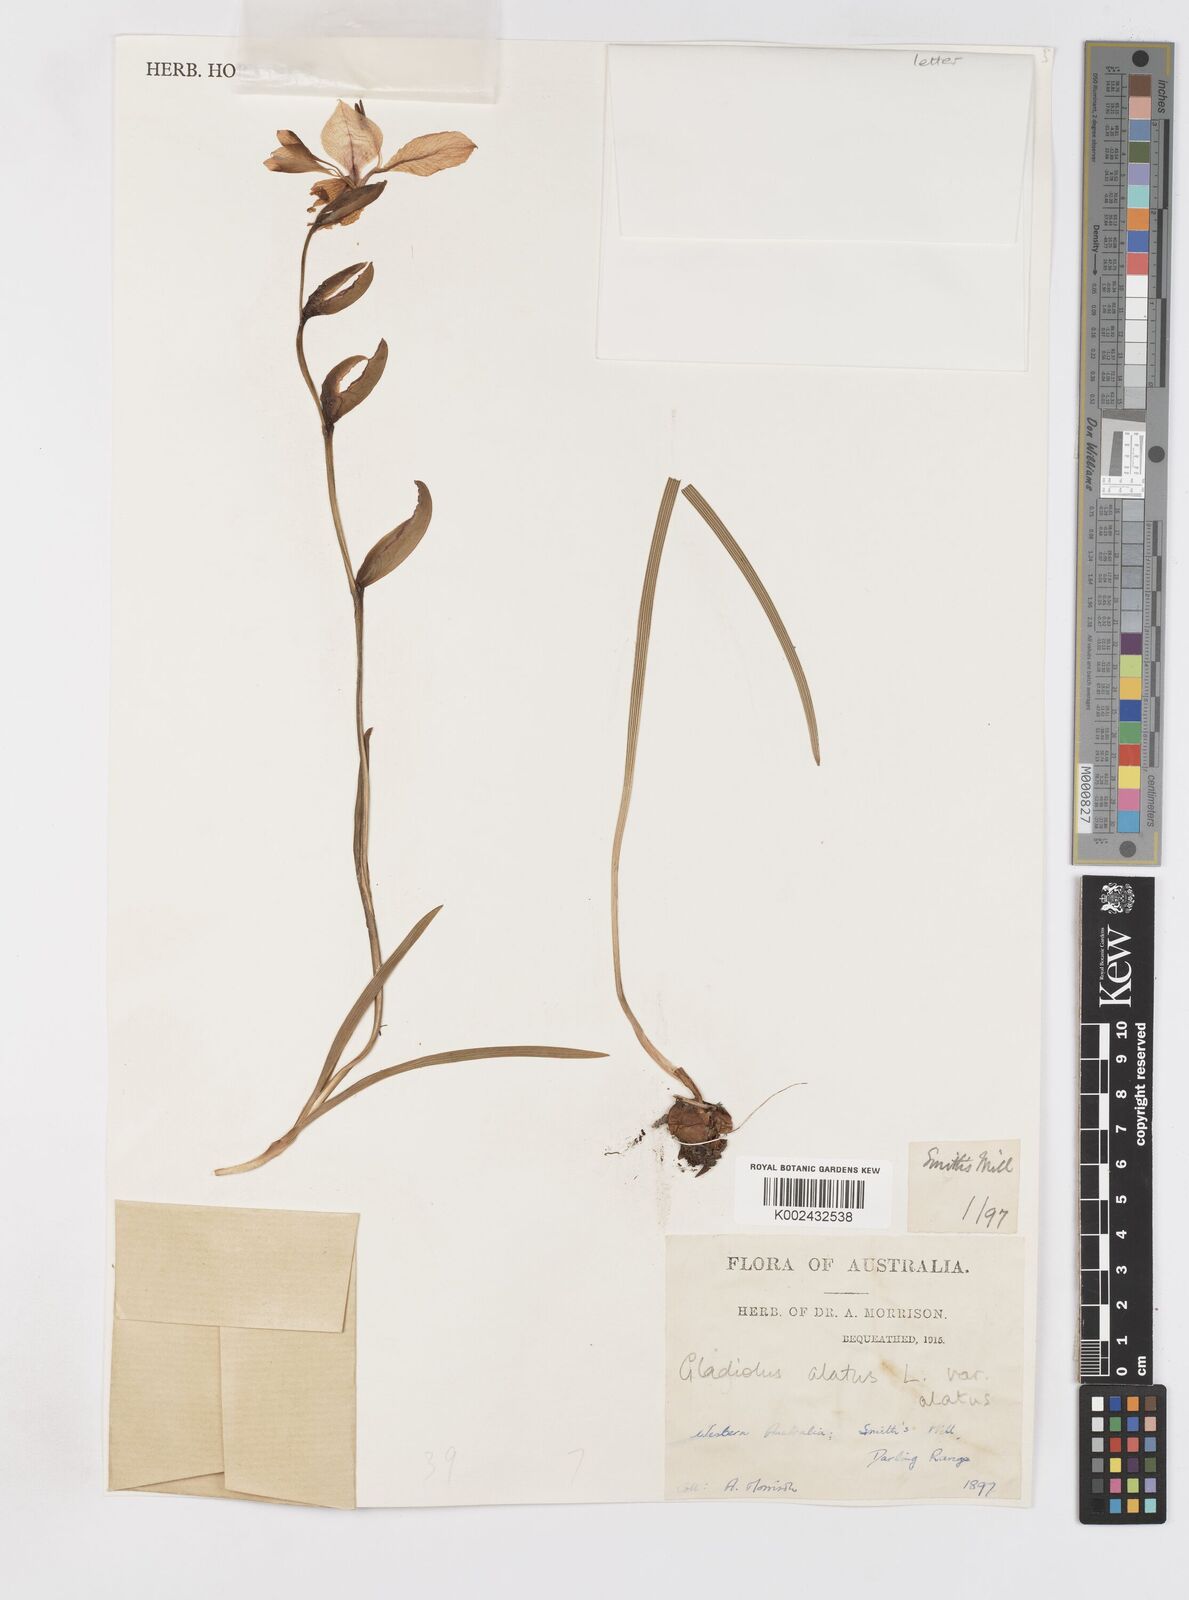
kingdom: Plantae
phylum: Tracheophyta
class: Liliopsida
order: Asparagales
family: Iridaceae
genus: Gladiolus
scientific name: Gladiolus alatus
